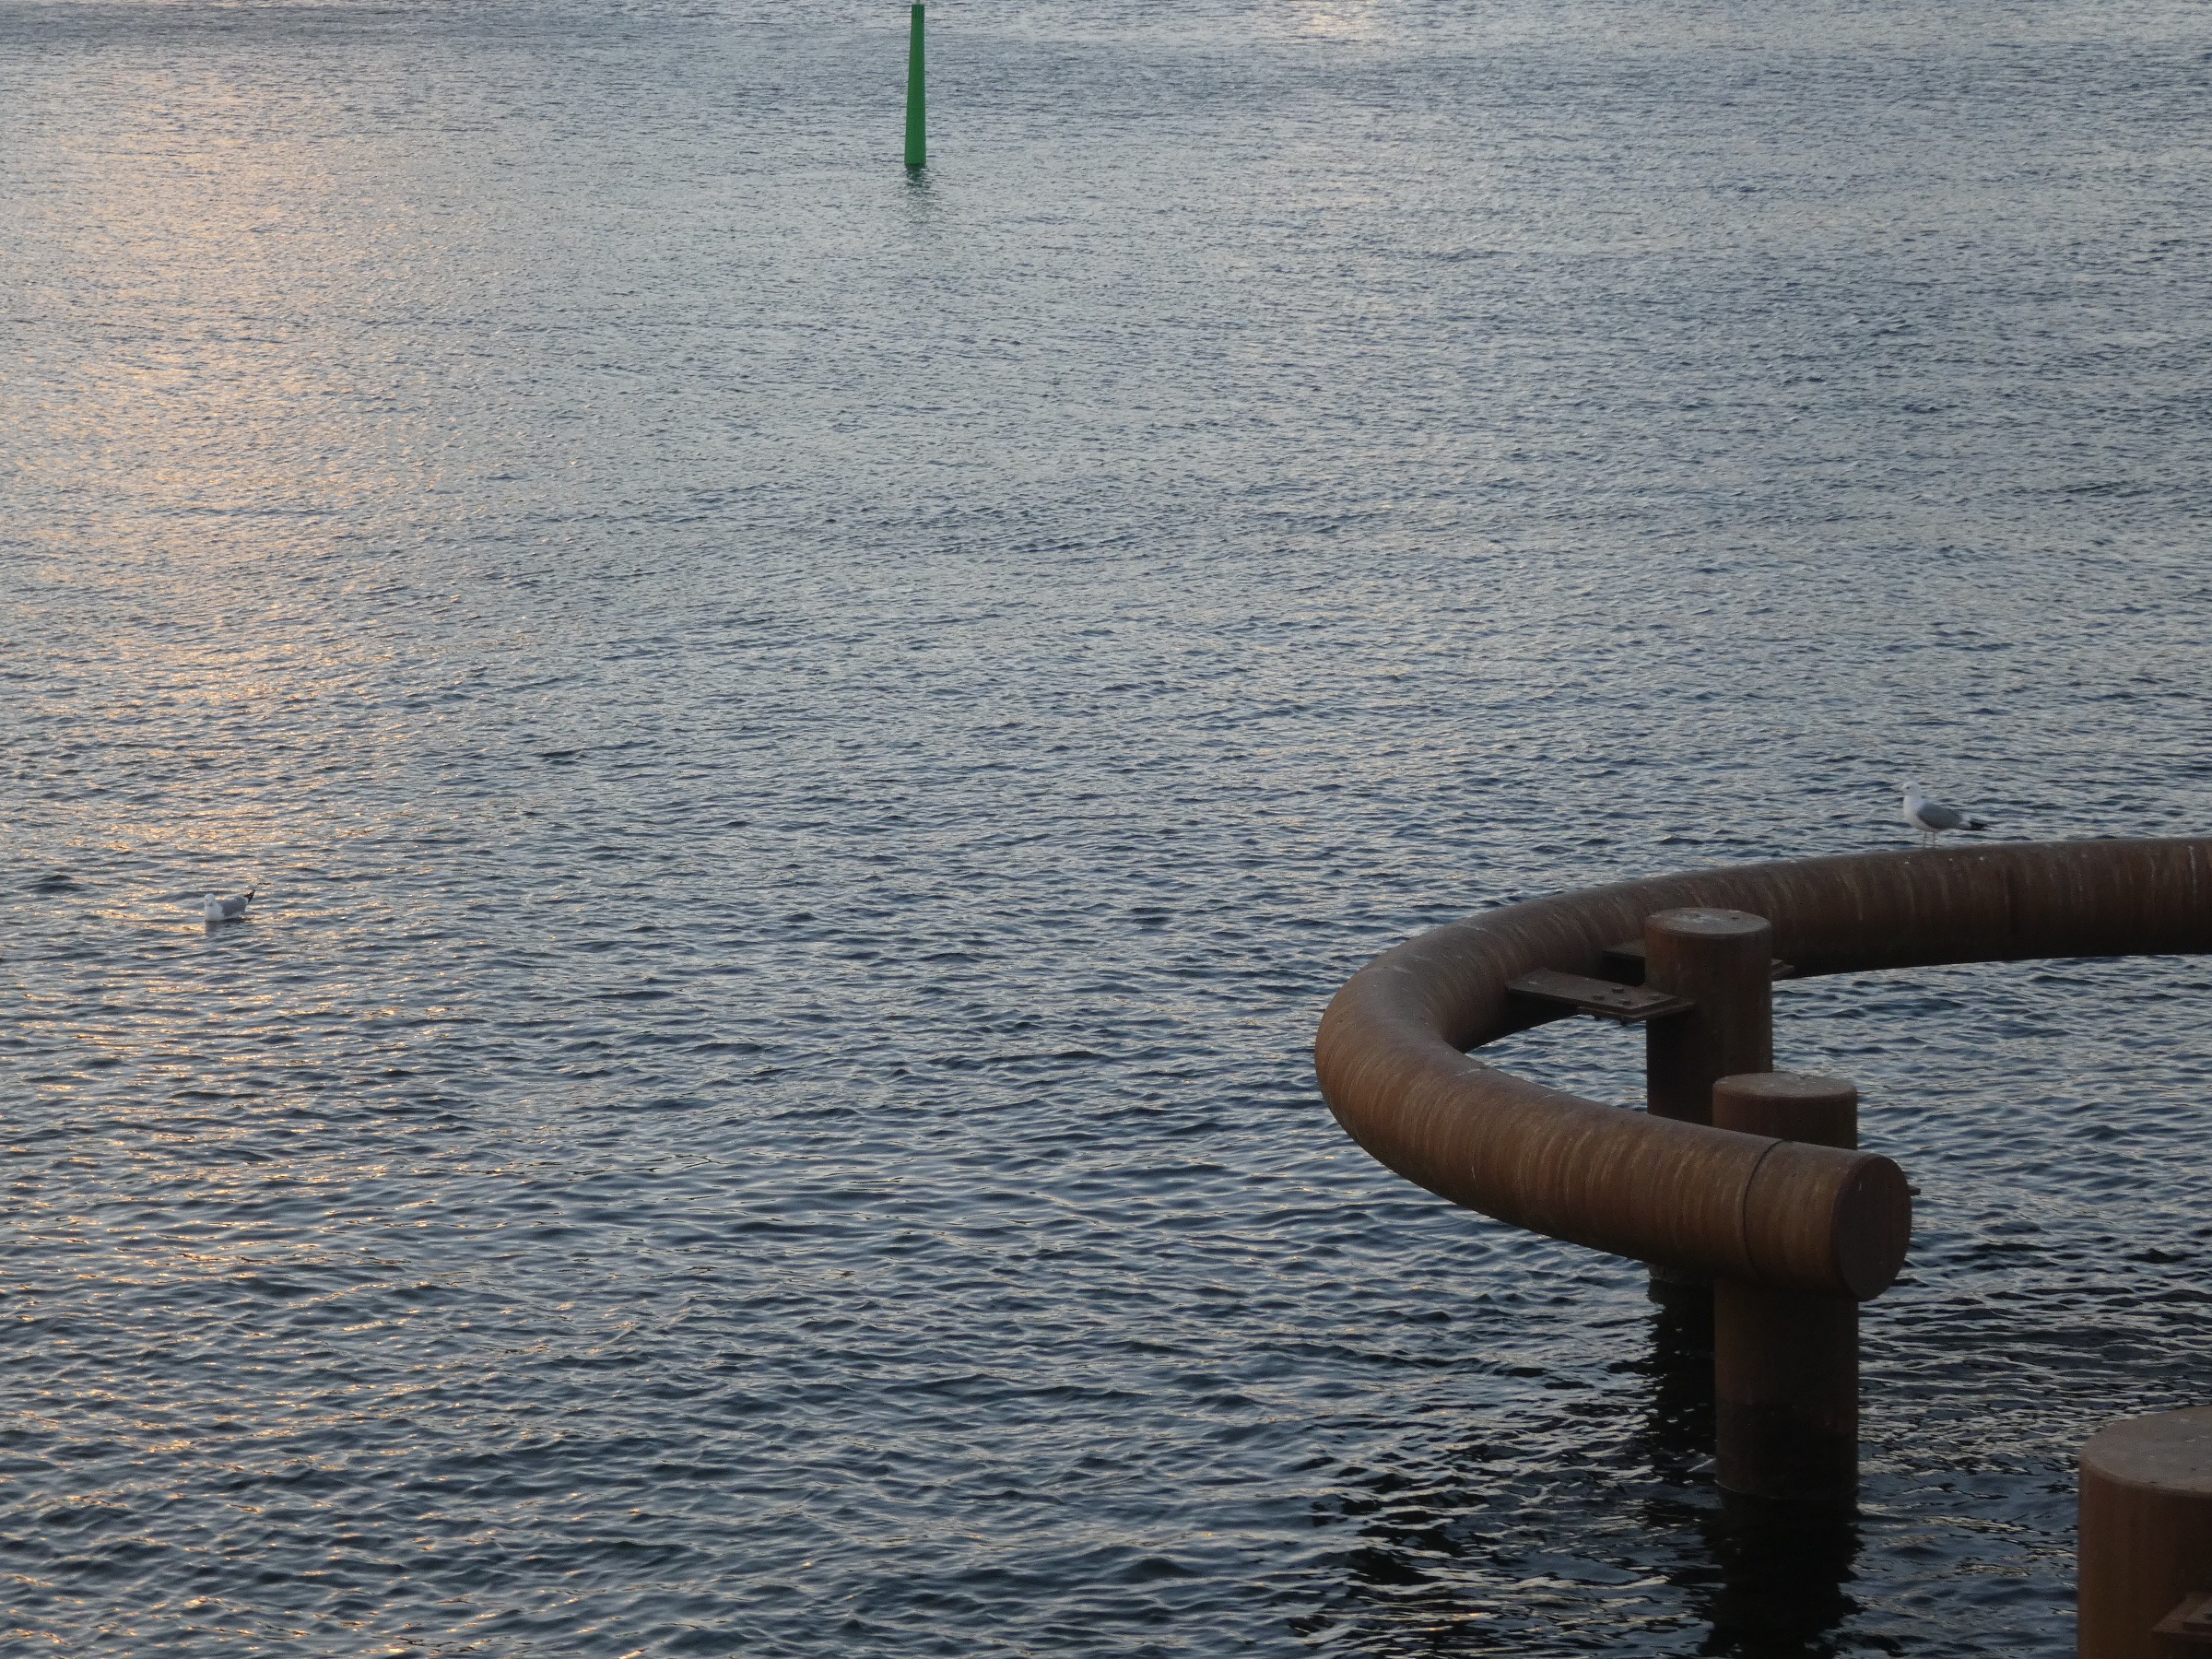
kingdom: Animalia
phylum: Chordata
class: Aves
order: Charadriiformes
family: Laridae
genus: Larus
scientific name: Larus canus
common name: Stormmåge
